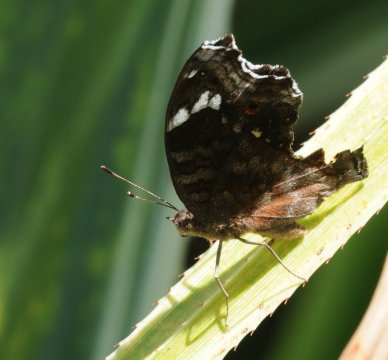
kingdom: Animalia
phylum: Arthropoda
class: Insecta
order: Lepidoptera
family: Nymphalidae
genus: Junonia
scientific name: Junonia natalica
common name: Natal Pansy
